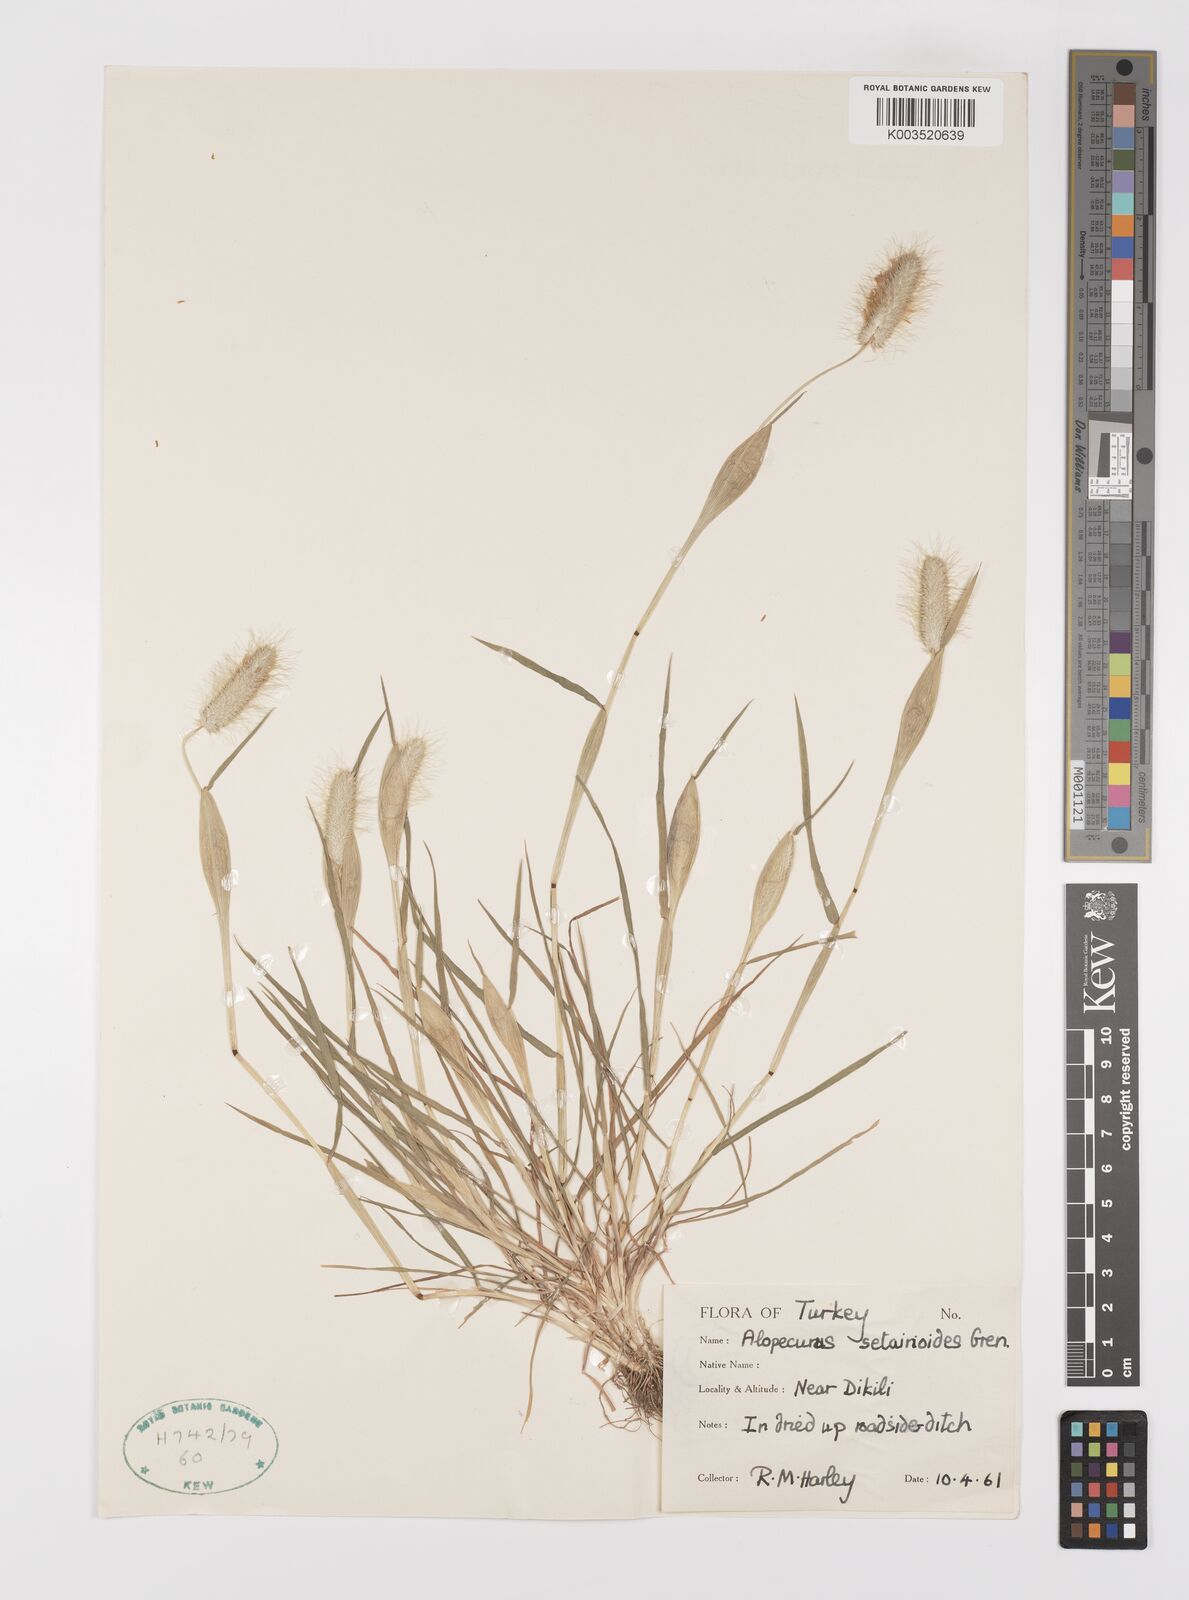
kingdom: Plantae
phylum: Tracheophyta
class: Liliopsida
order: Poales
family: Poaceae
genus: Alopecurus
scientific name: Alopecurus setarioides
